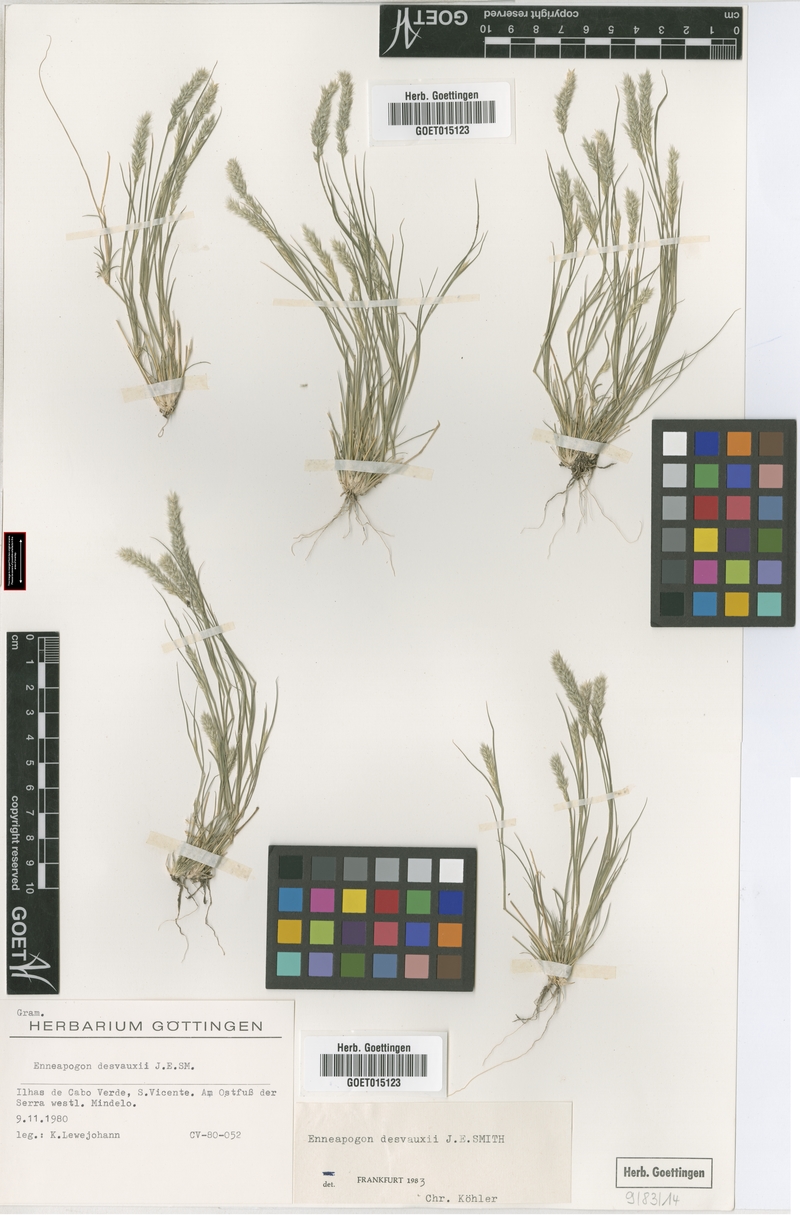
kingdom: Plantae
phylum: Tracheophyta
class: Liliopsida
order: Poales
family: Poaceae
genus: Enneapogon
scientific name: Enneapogon desvauxii
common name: Feather pappus grass
